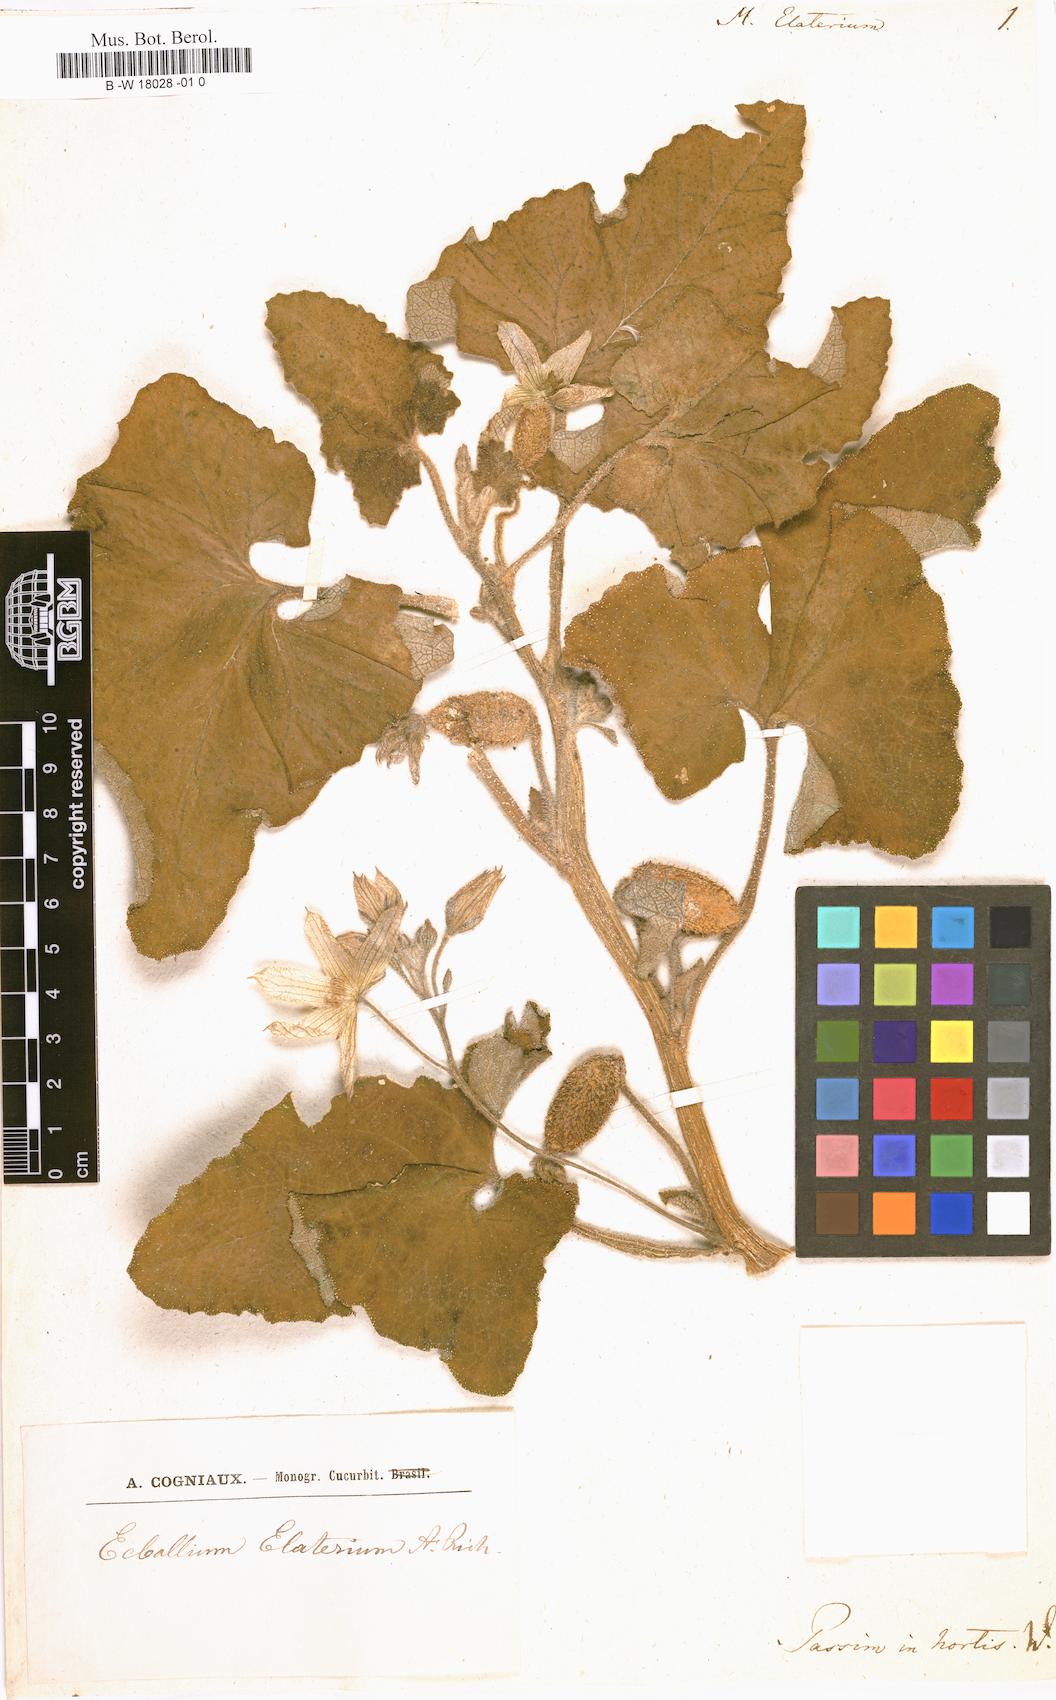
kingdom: Plantae
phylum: Tracheophyta
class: Magnoliopsida
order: Cucurbitales
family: Cucurbitaceae
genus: Ecballium
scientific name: Ecballium elaterium
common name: Squirting cucumber
